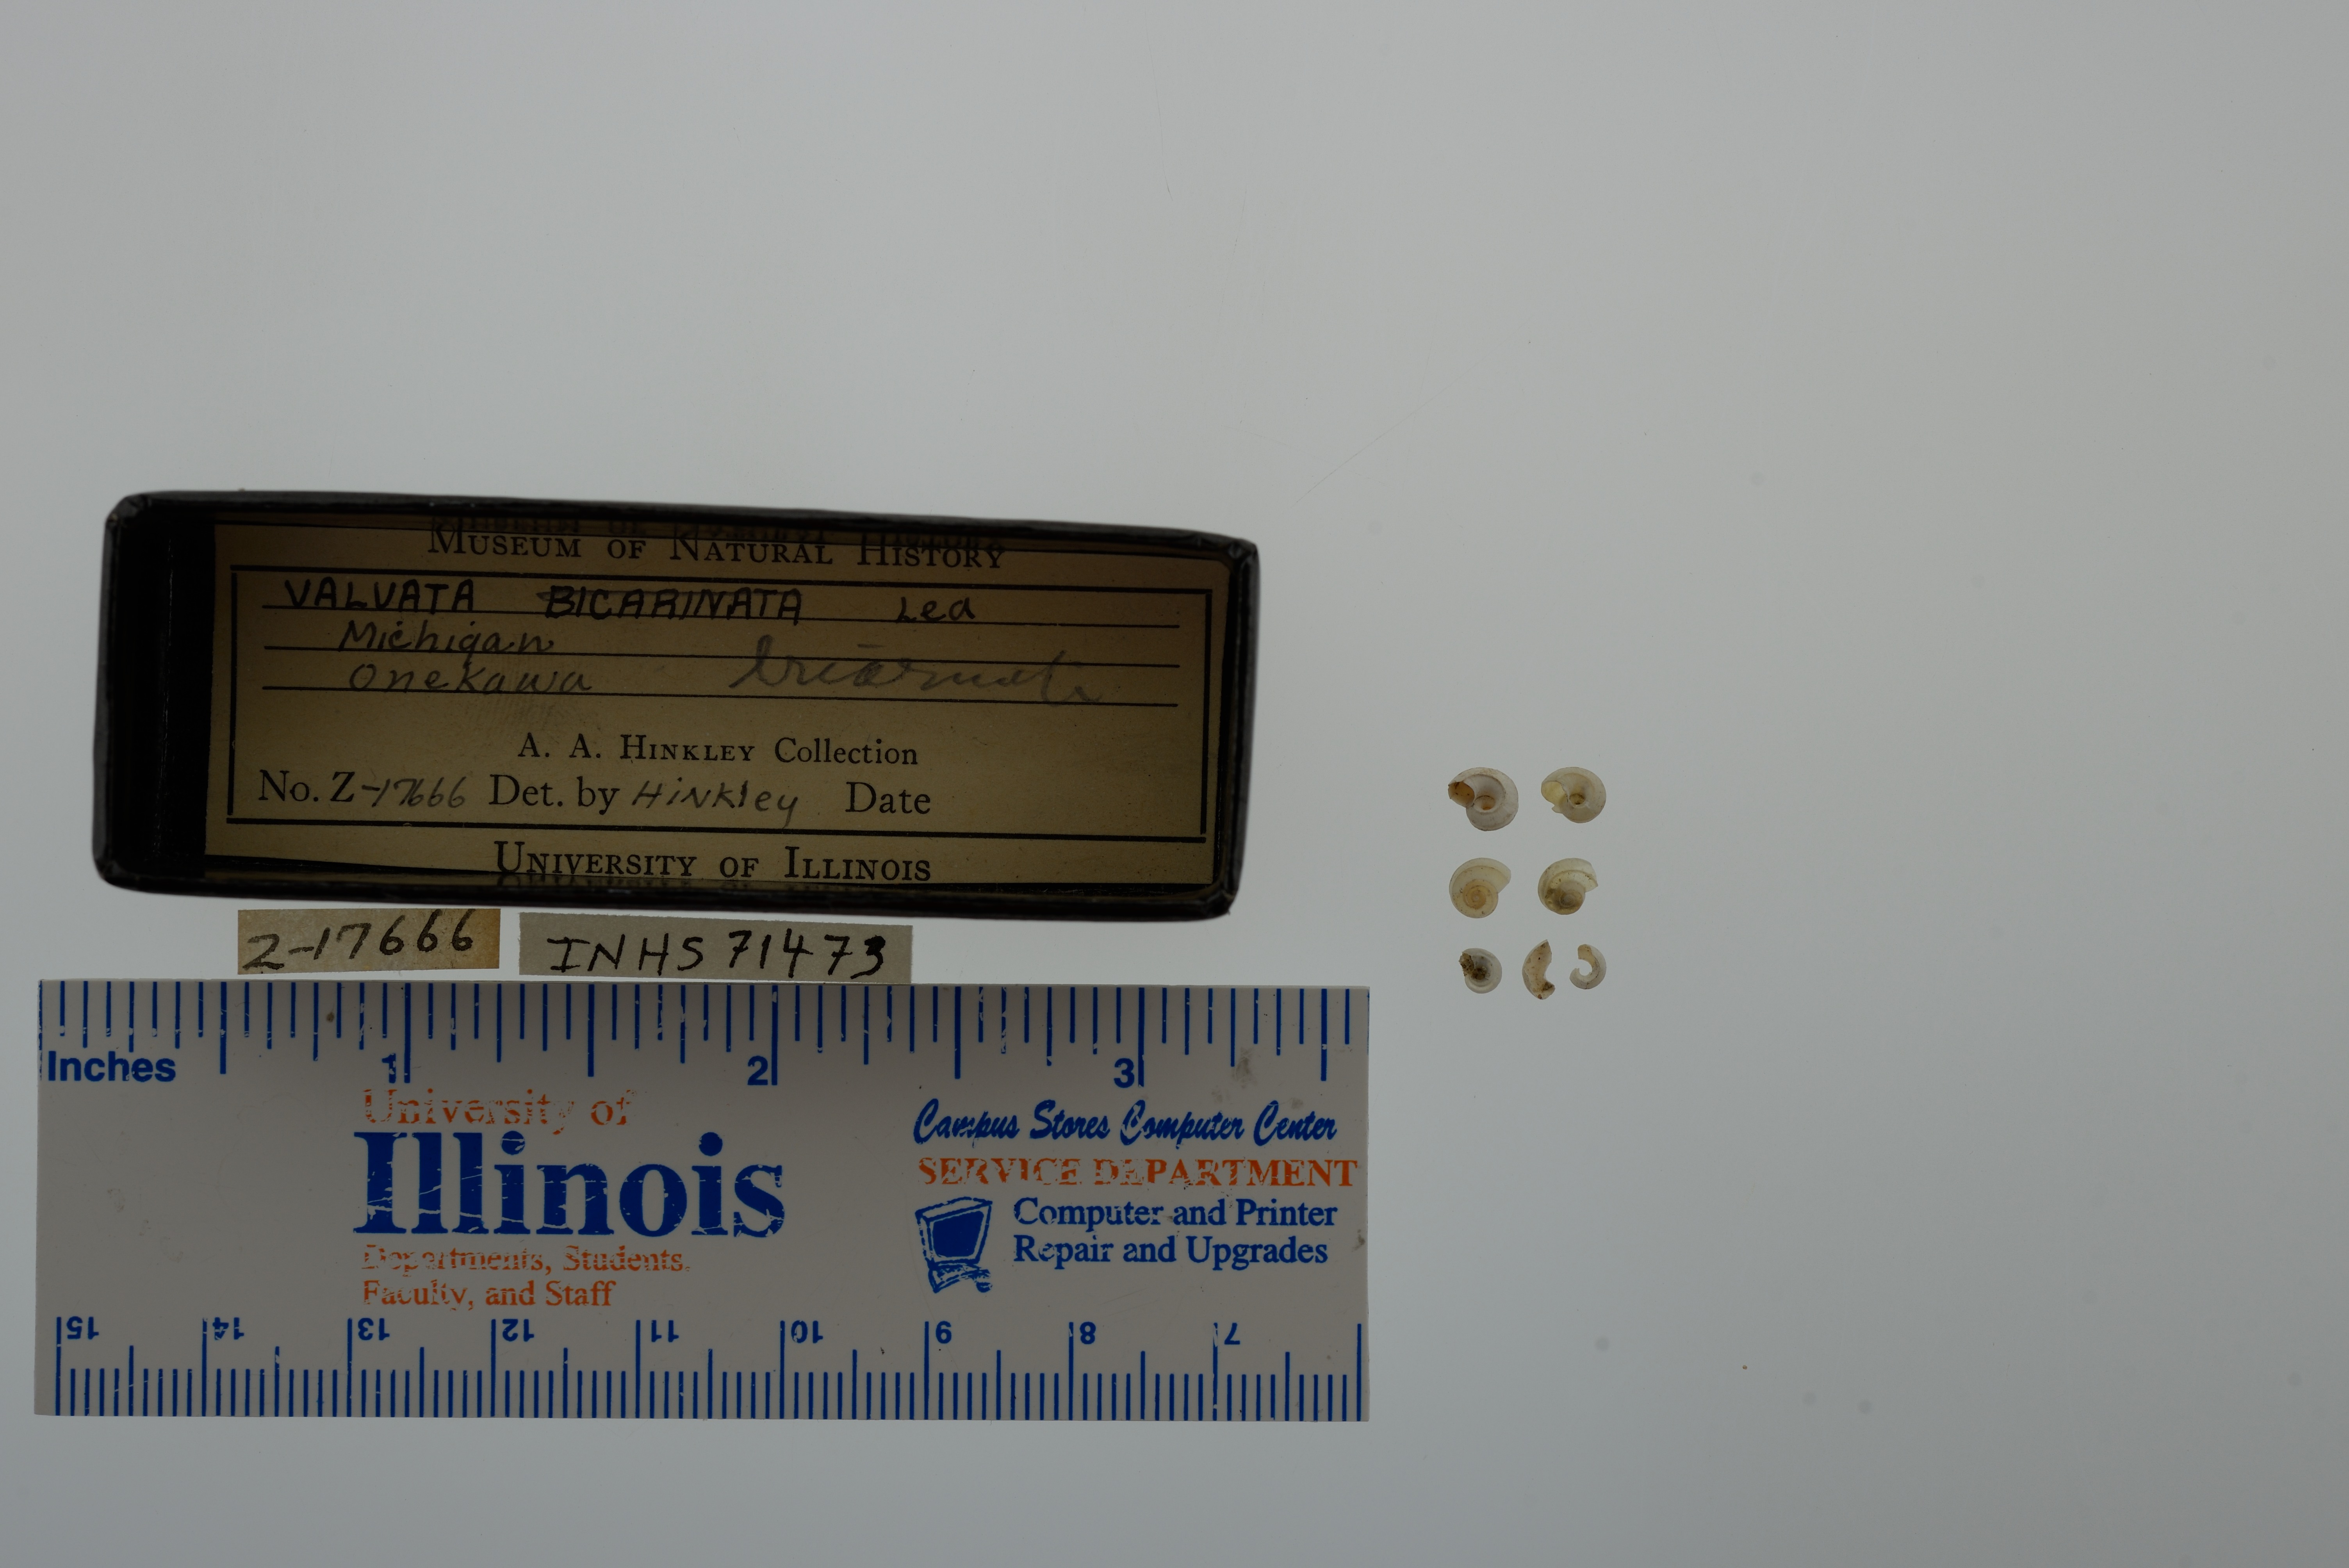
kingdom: Animalia
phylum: Mollusca
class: Gastropoda
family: Valvatidae
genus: Valvata
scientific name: Valvata bicarinata
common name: Two-ridge valvata
